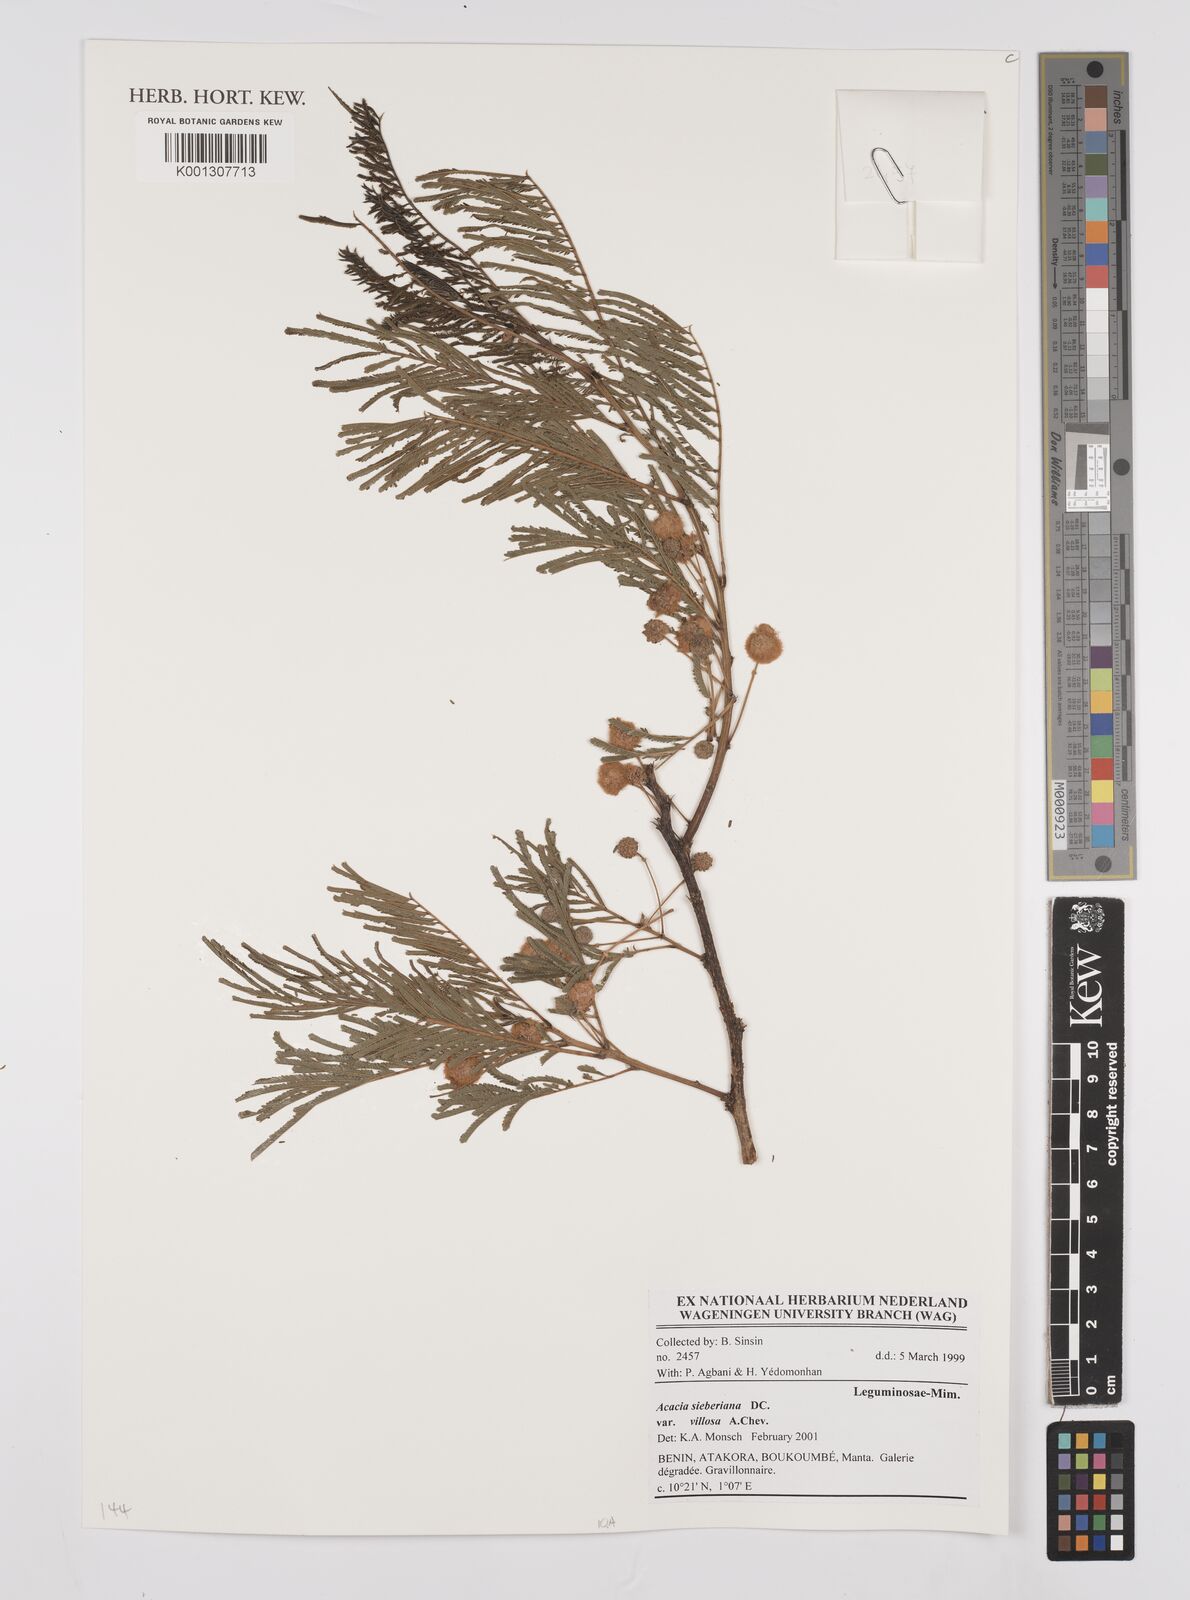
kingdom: Plantae
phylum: Tracheophyta
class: Magnoliopsida
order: Fabales
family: Fabaceae
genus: Vachellia
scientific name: Vachellia sieberiana
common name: Flat-topped thorn
